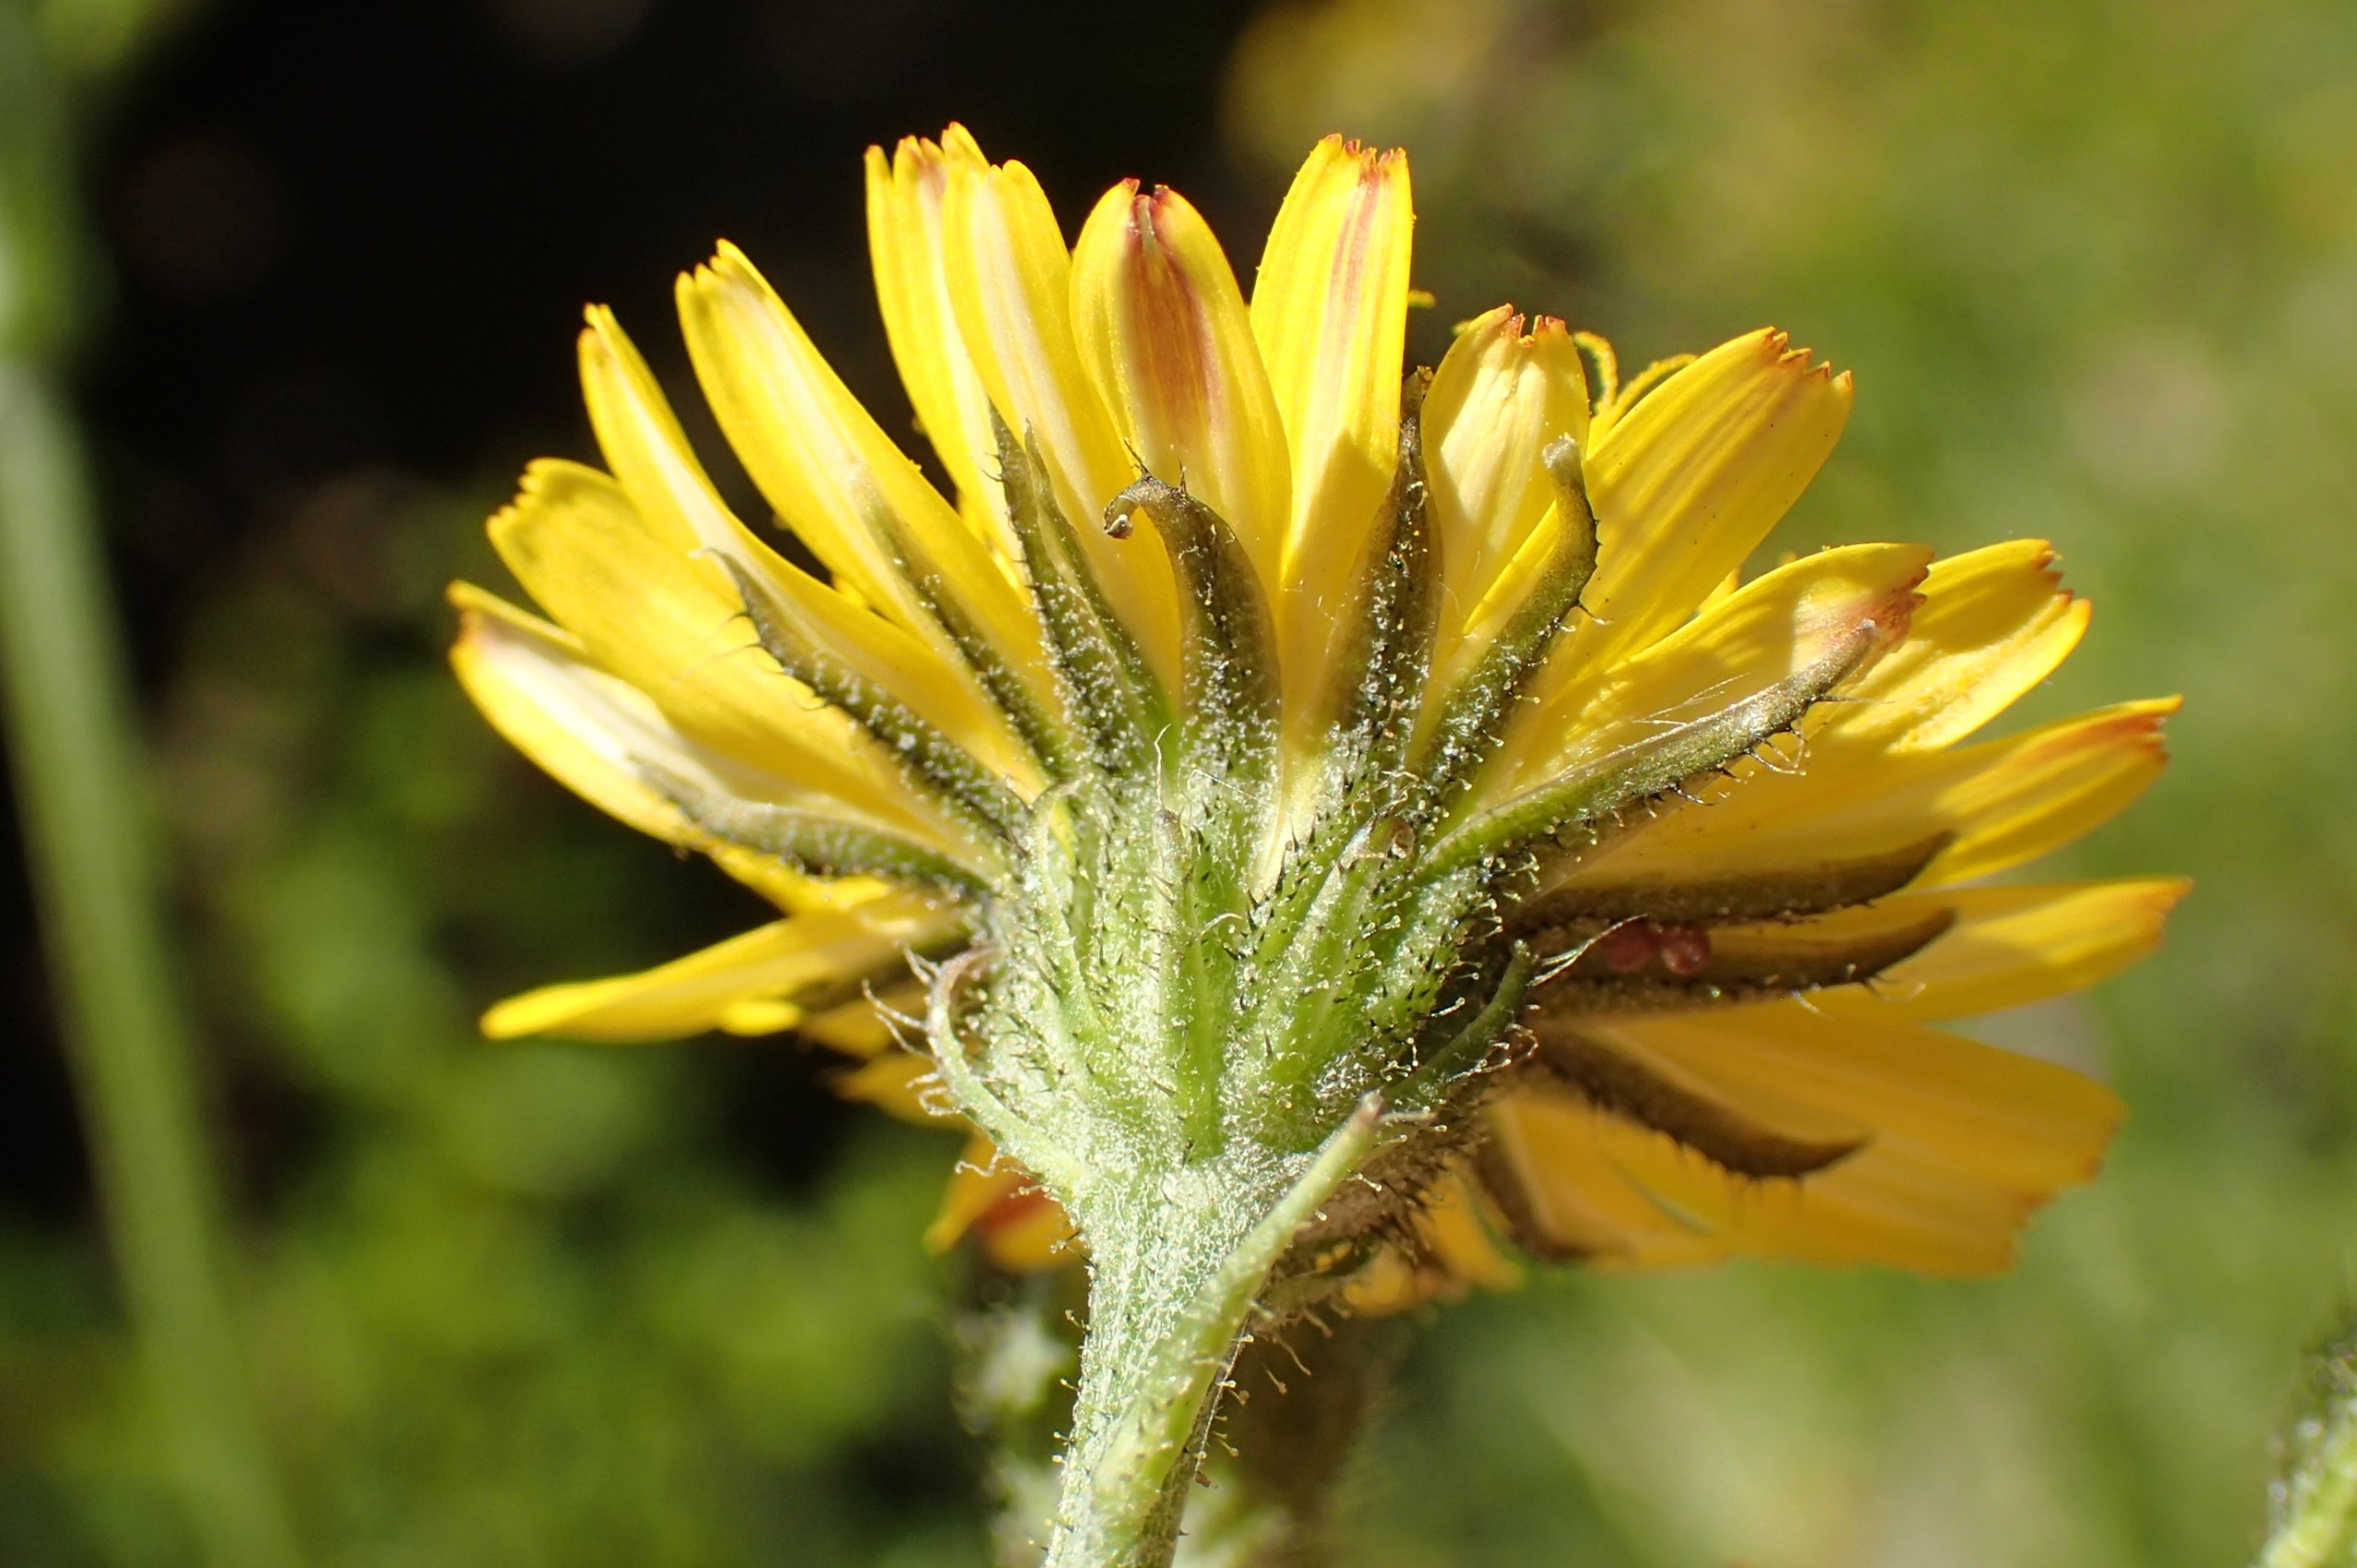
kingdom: Plantae
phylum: Tracheophyta
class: Magnoliopsida
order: Asterales
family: Asteraceae
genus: Crepis
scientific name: Crepis capillaris
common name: Grøn høgeskæg
